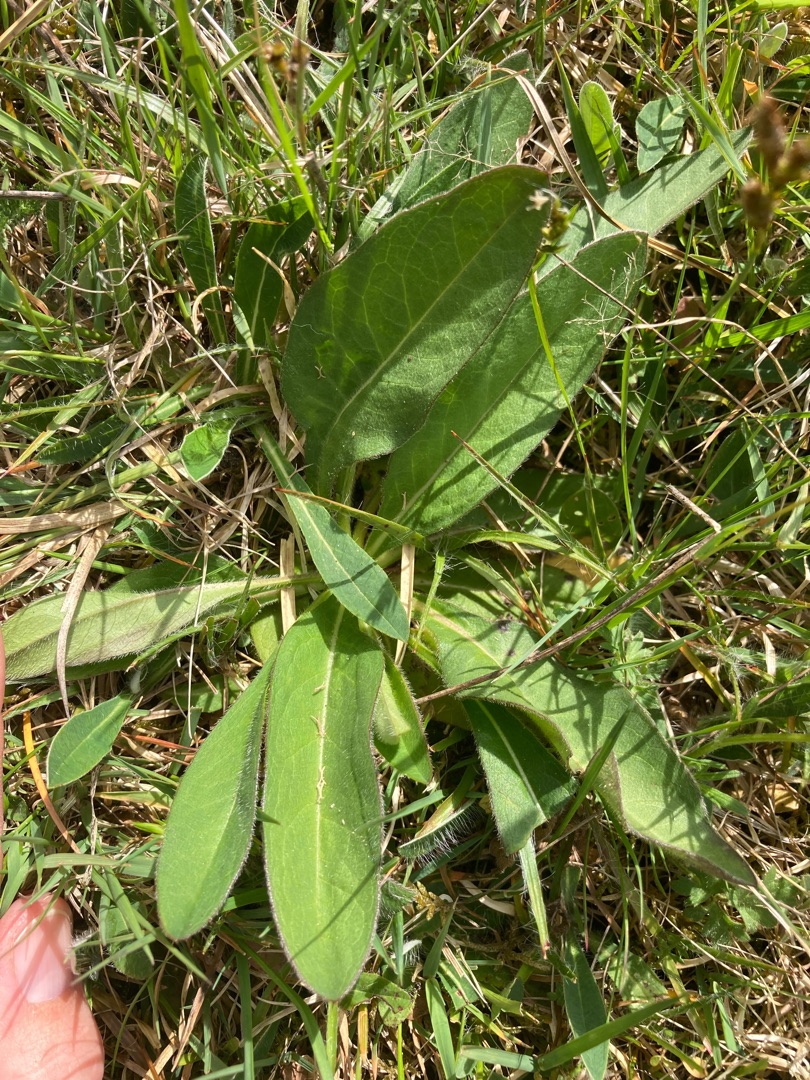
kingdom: Plantae
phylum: Tracheophyta
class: Magnoliopsida
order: Dipsacales
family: Caprifoliaceae
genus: Succisa
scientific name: Succisa pratensis
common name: Djævelsbid
